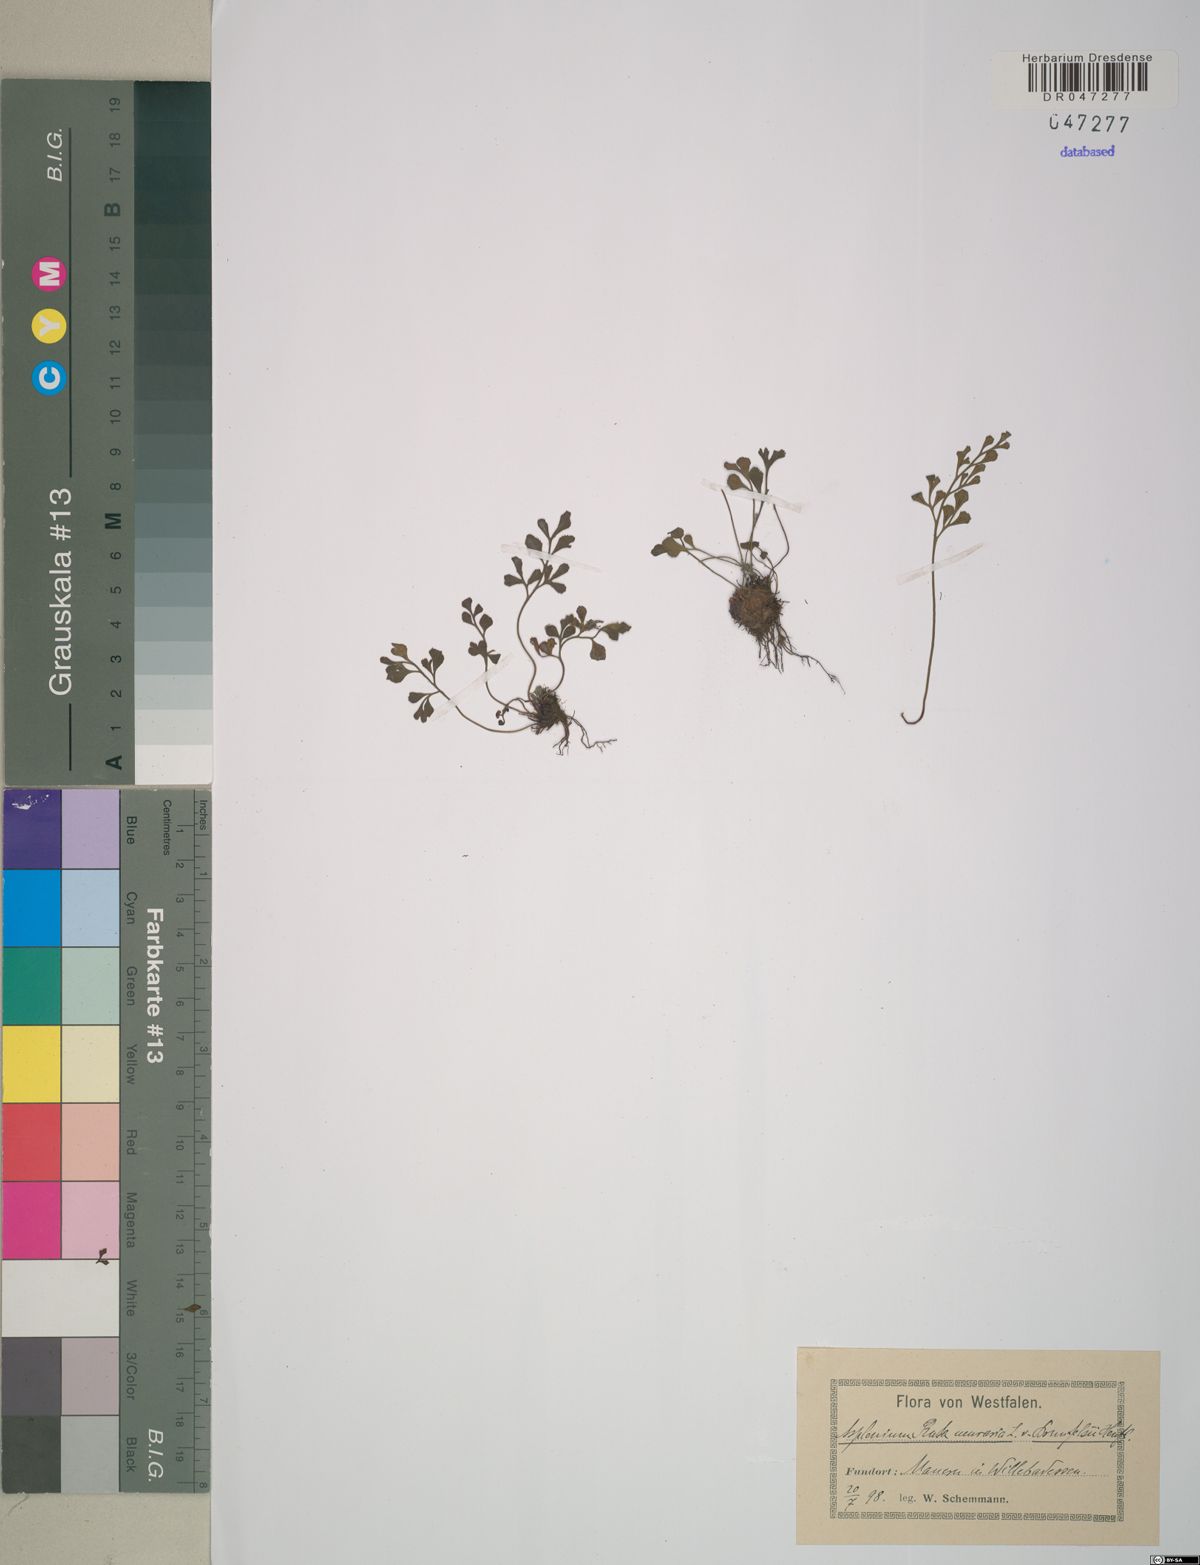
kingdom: Plantae
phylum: Tracheophyta
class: Polypodiopsida
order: Polypodiales
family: Aspleniaceae
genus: Asplenium
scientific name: Asplenium ruta-muraria
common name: Wall-rue
